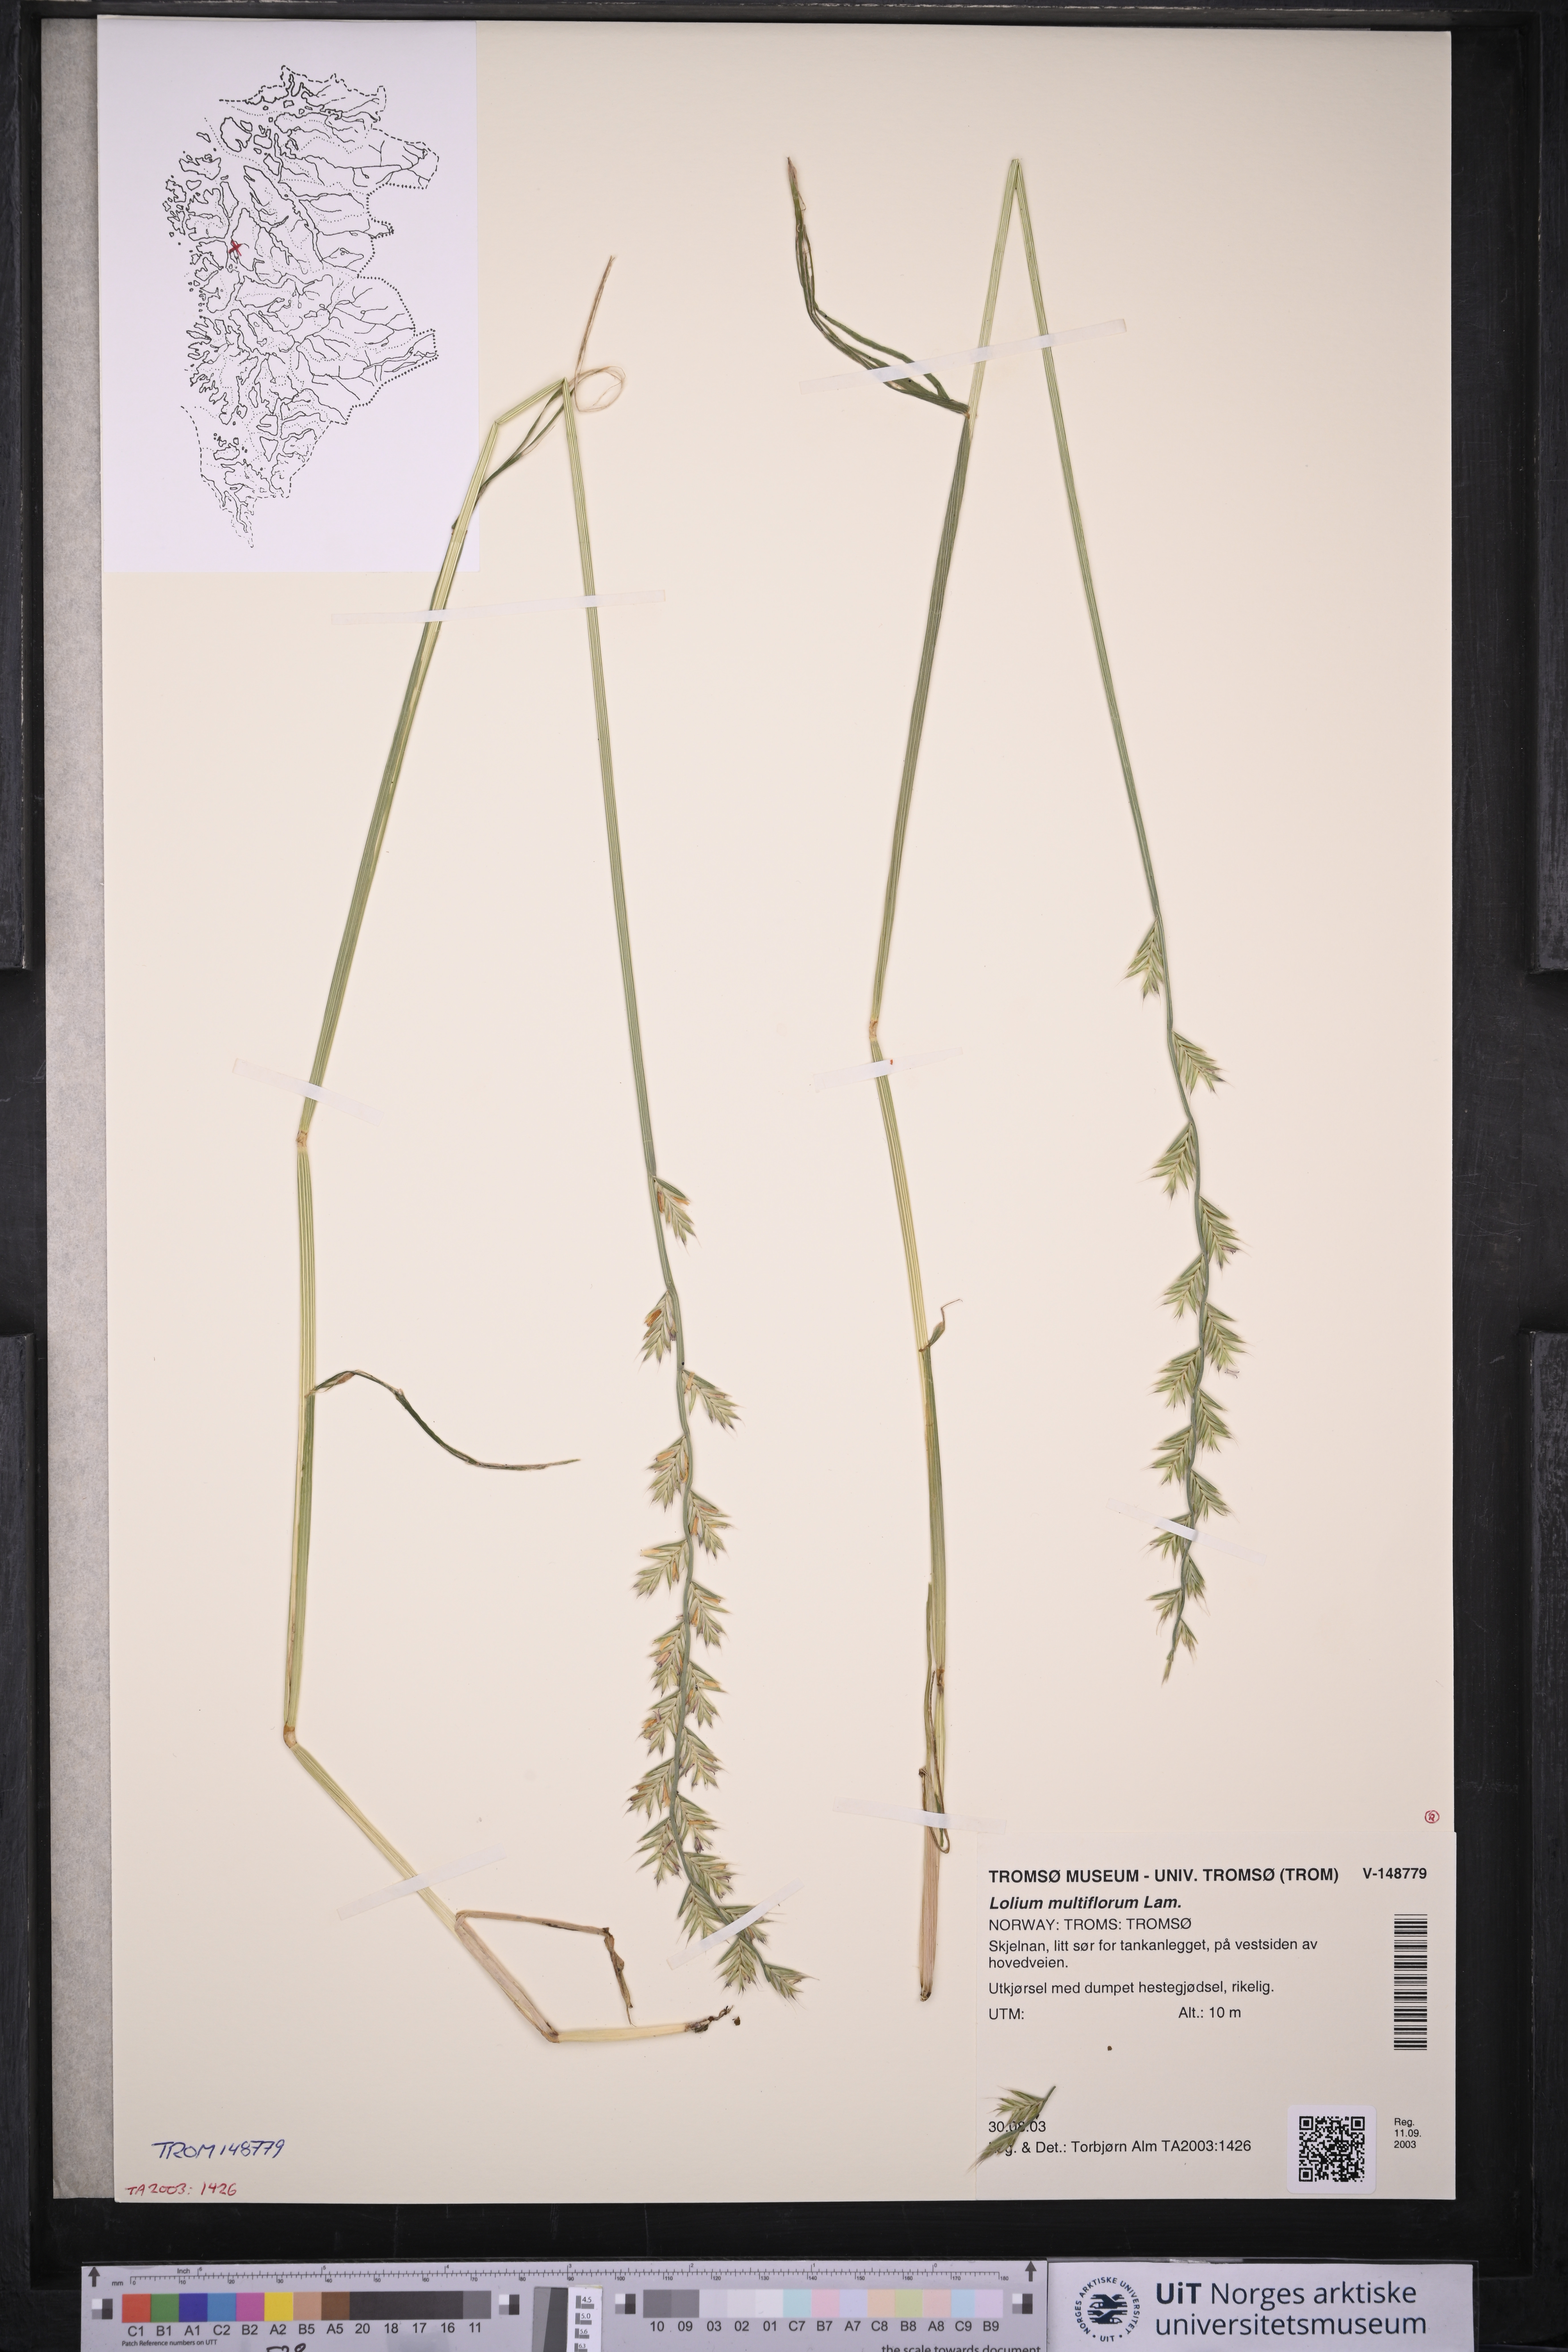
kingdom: Plantae
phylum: Tracheophyta
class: Liliopsida
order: Poales
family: Poaceae
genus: Lolium
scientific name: Lolium multiflorum
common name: Annual ryegrass
